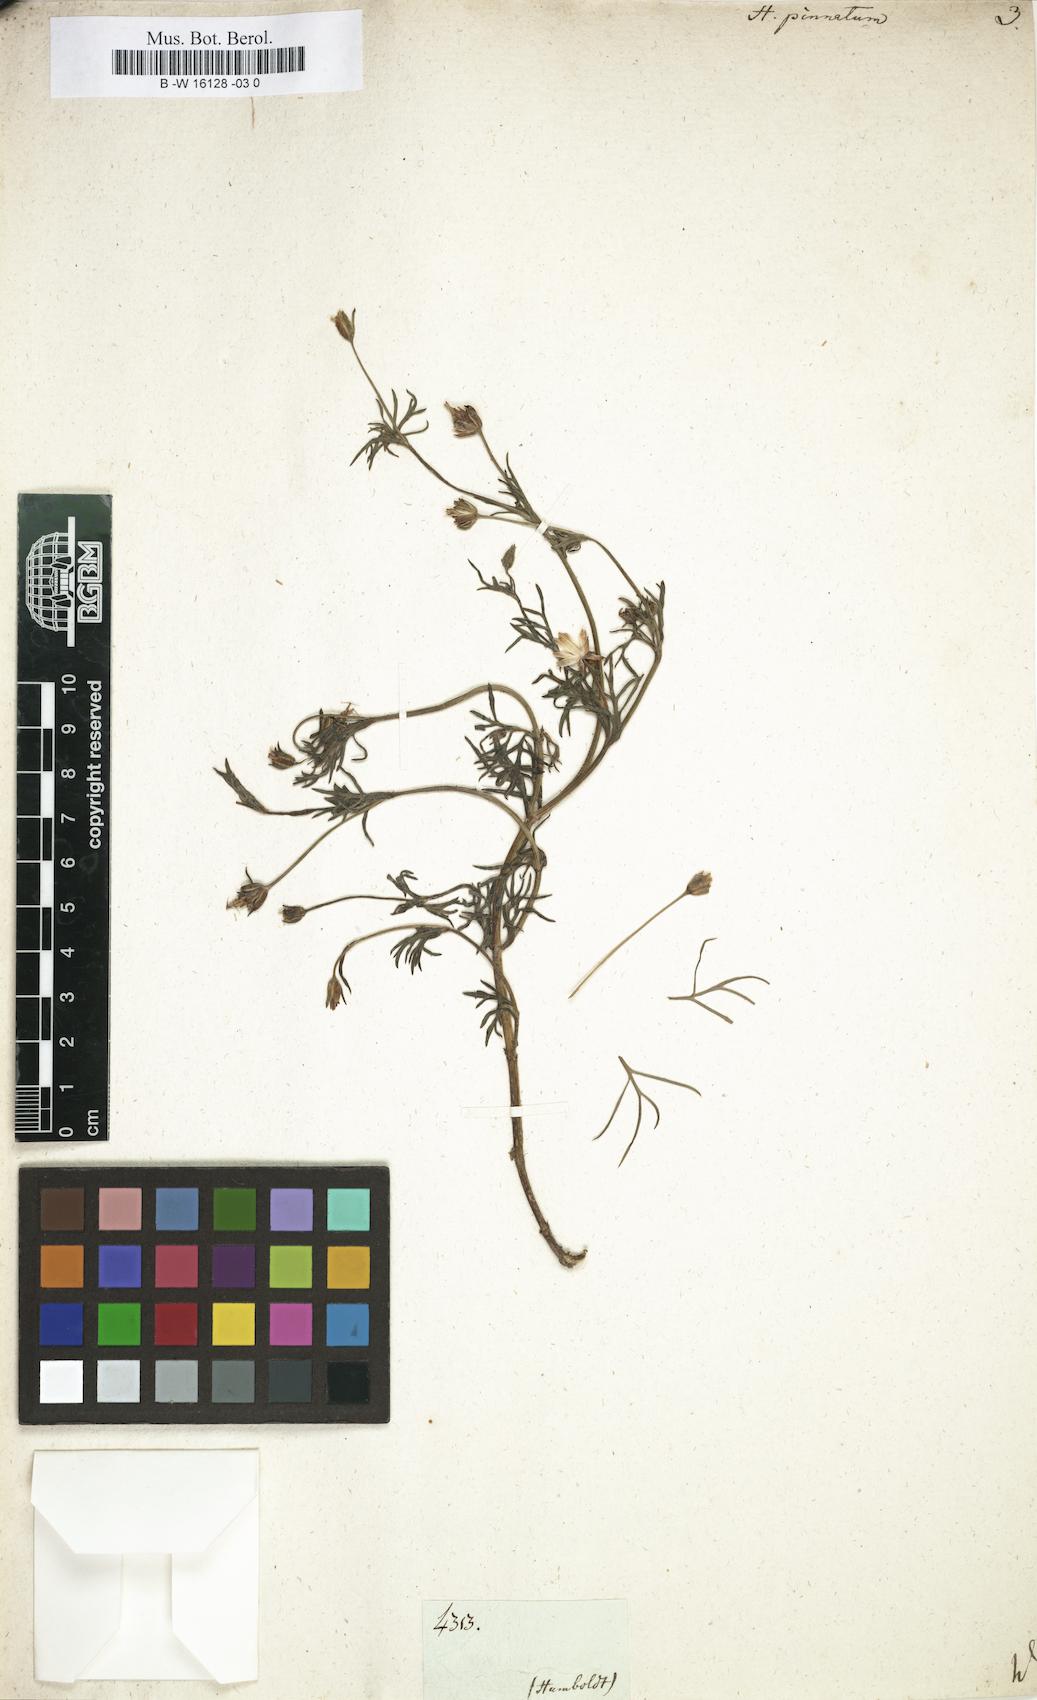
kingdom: Plantae
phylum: Tracheophyta
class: Magnoliopsida
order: Asterales
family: Asteraceae
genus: Heterosperma
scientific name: Heterosperma
